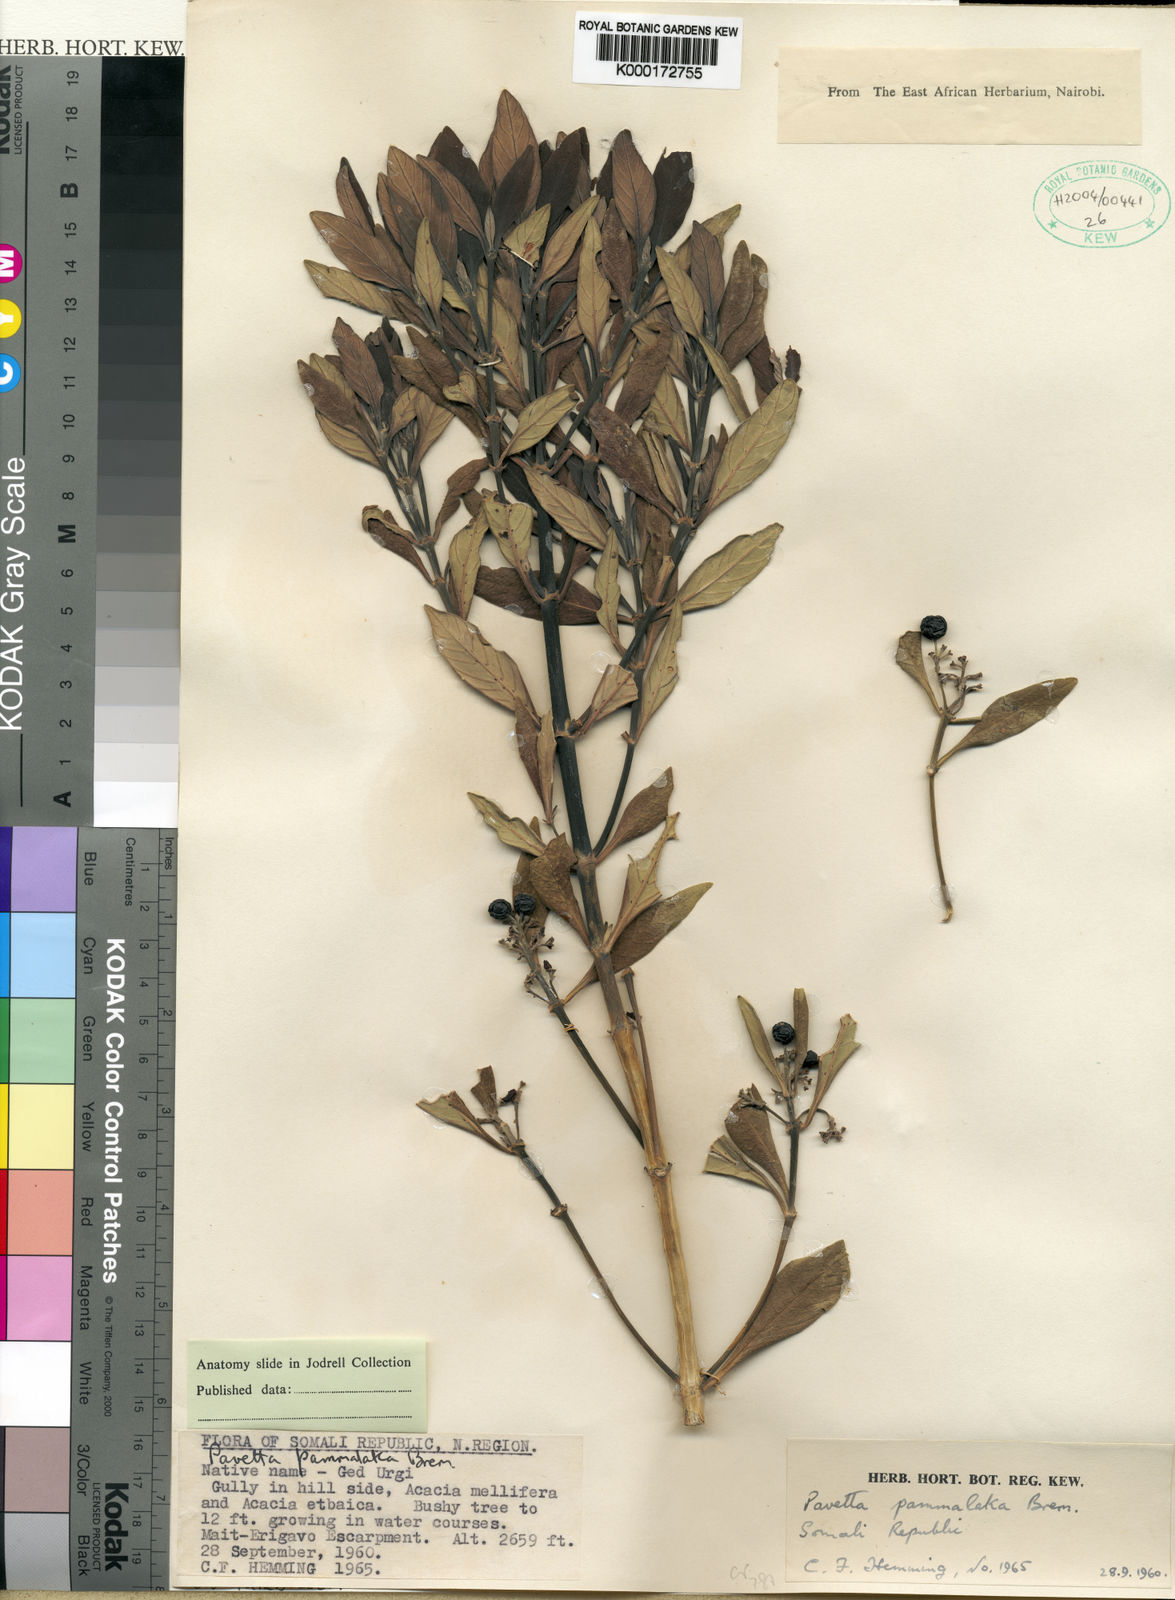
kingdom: Plantae
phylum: Tracheophyta
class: Magnoliopsida
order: Gentianales
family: Rubiaceae
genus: Pavetta
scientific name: Pavetta
